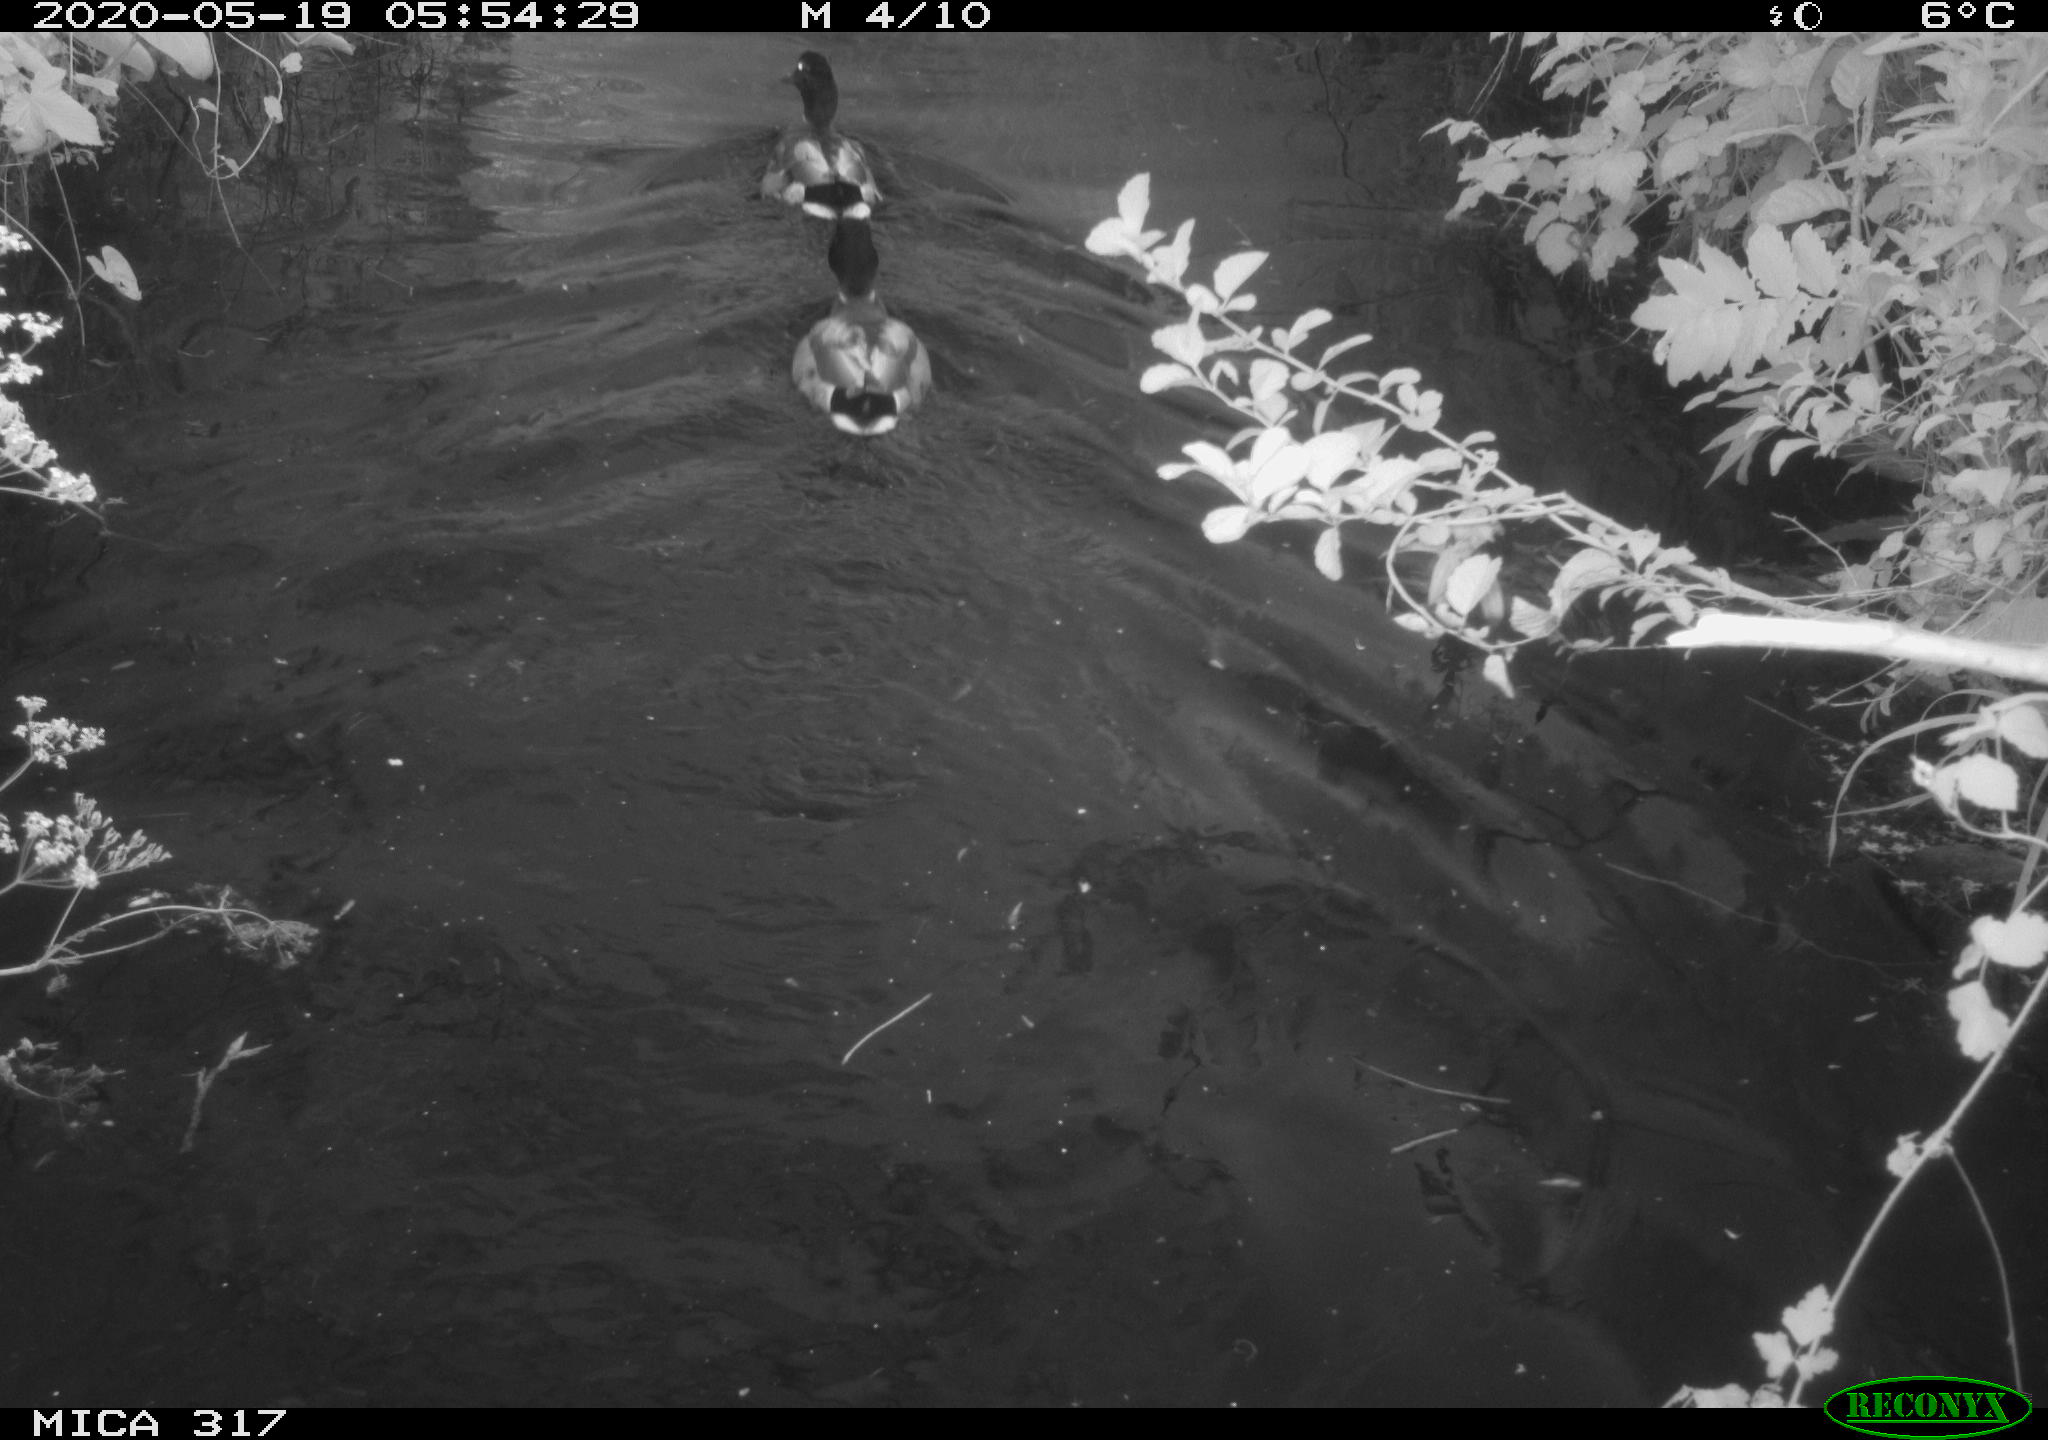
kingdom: Animalia
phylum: Chordata
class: Aves
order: Anseriformes
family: Anatidae
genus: Anas
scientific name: Anas platyrhynchos
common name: Mallard
